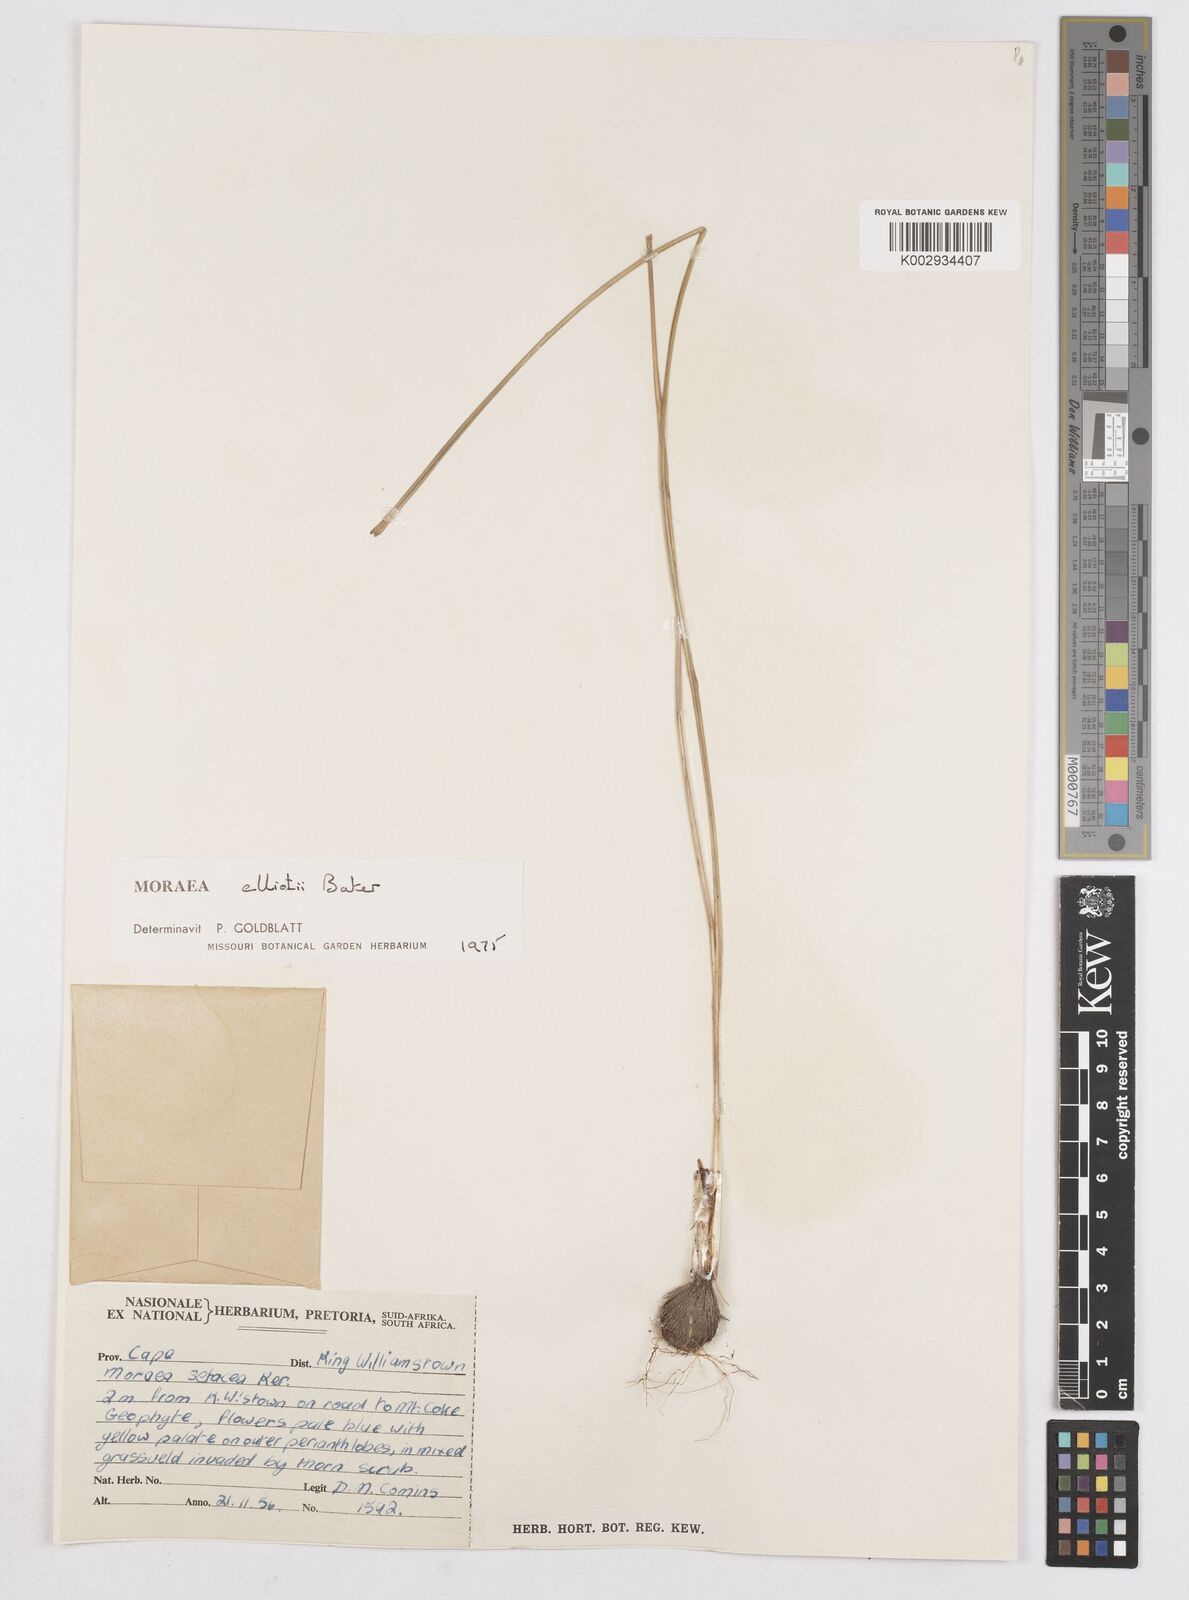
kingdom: Plantae
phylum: Tracheophyta
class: Liliopsida
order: Asparagales
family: Iridaceae
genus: Moraea
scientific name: Moraea elliotii
